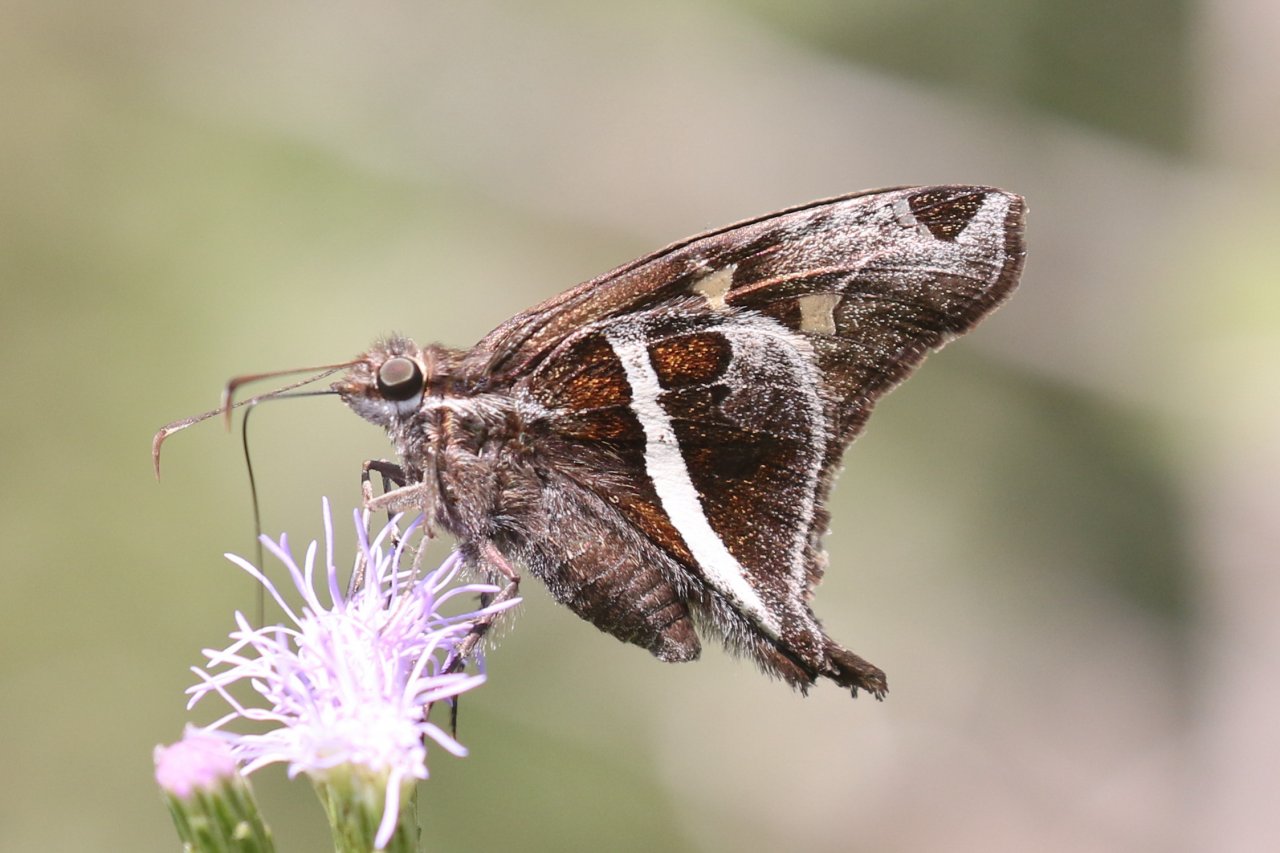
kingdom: Animalia
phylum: Arthropoda
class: Insecta
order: Lepidoptera
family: Hesperiidae
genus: Chioides
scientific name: Chioides catillus
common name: White-striped Longtail
